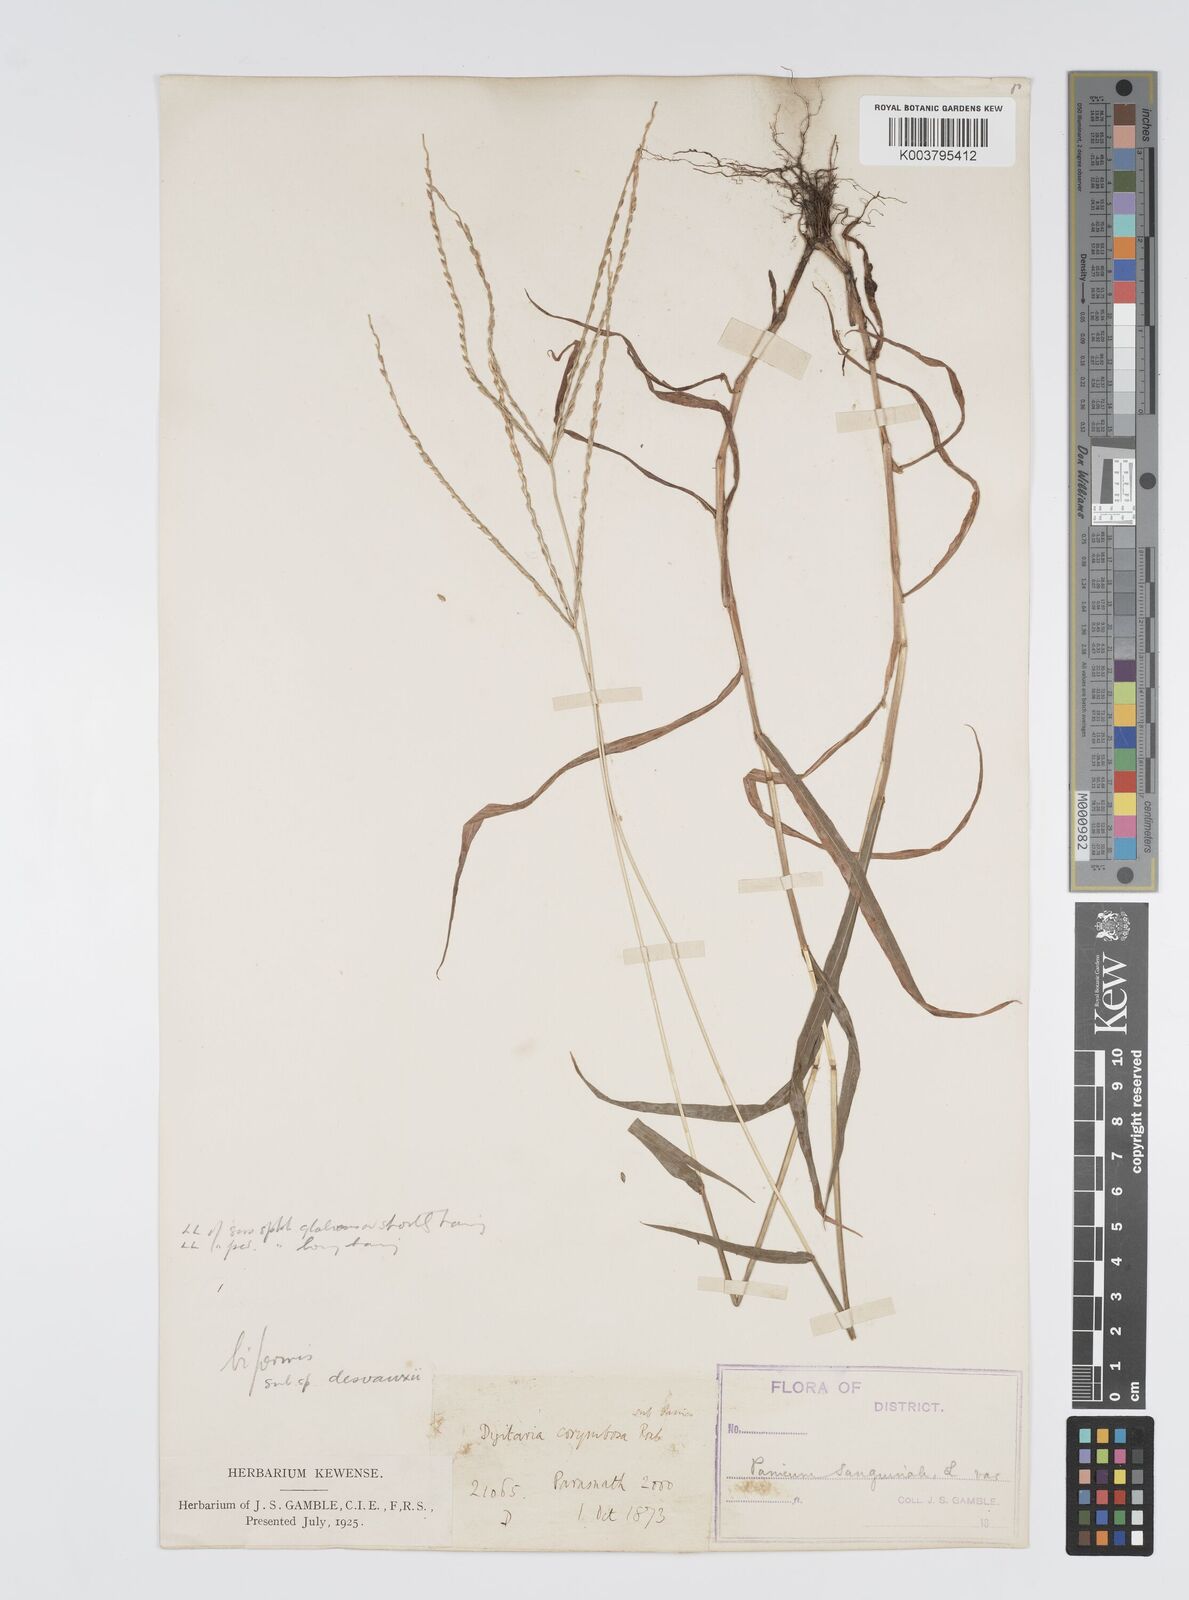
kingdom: Plantae
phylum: Tracheophyta
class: Liliopsida
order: Poales
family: Poaceae
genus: Digitaria
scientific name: Digitaria ciliaris
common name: Tropical finger-grass
